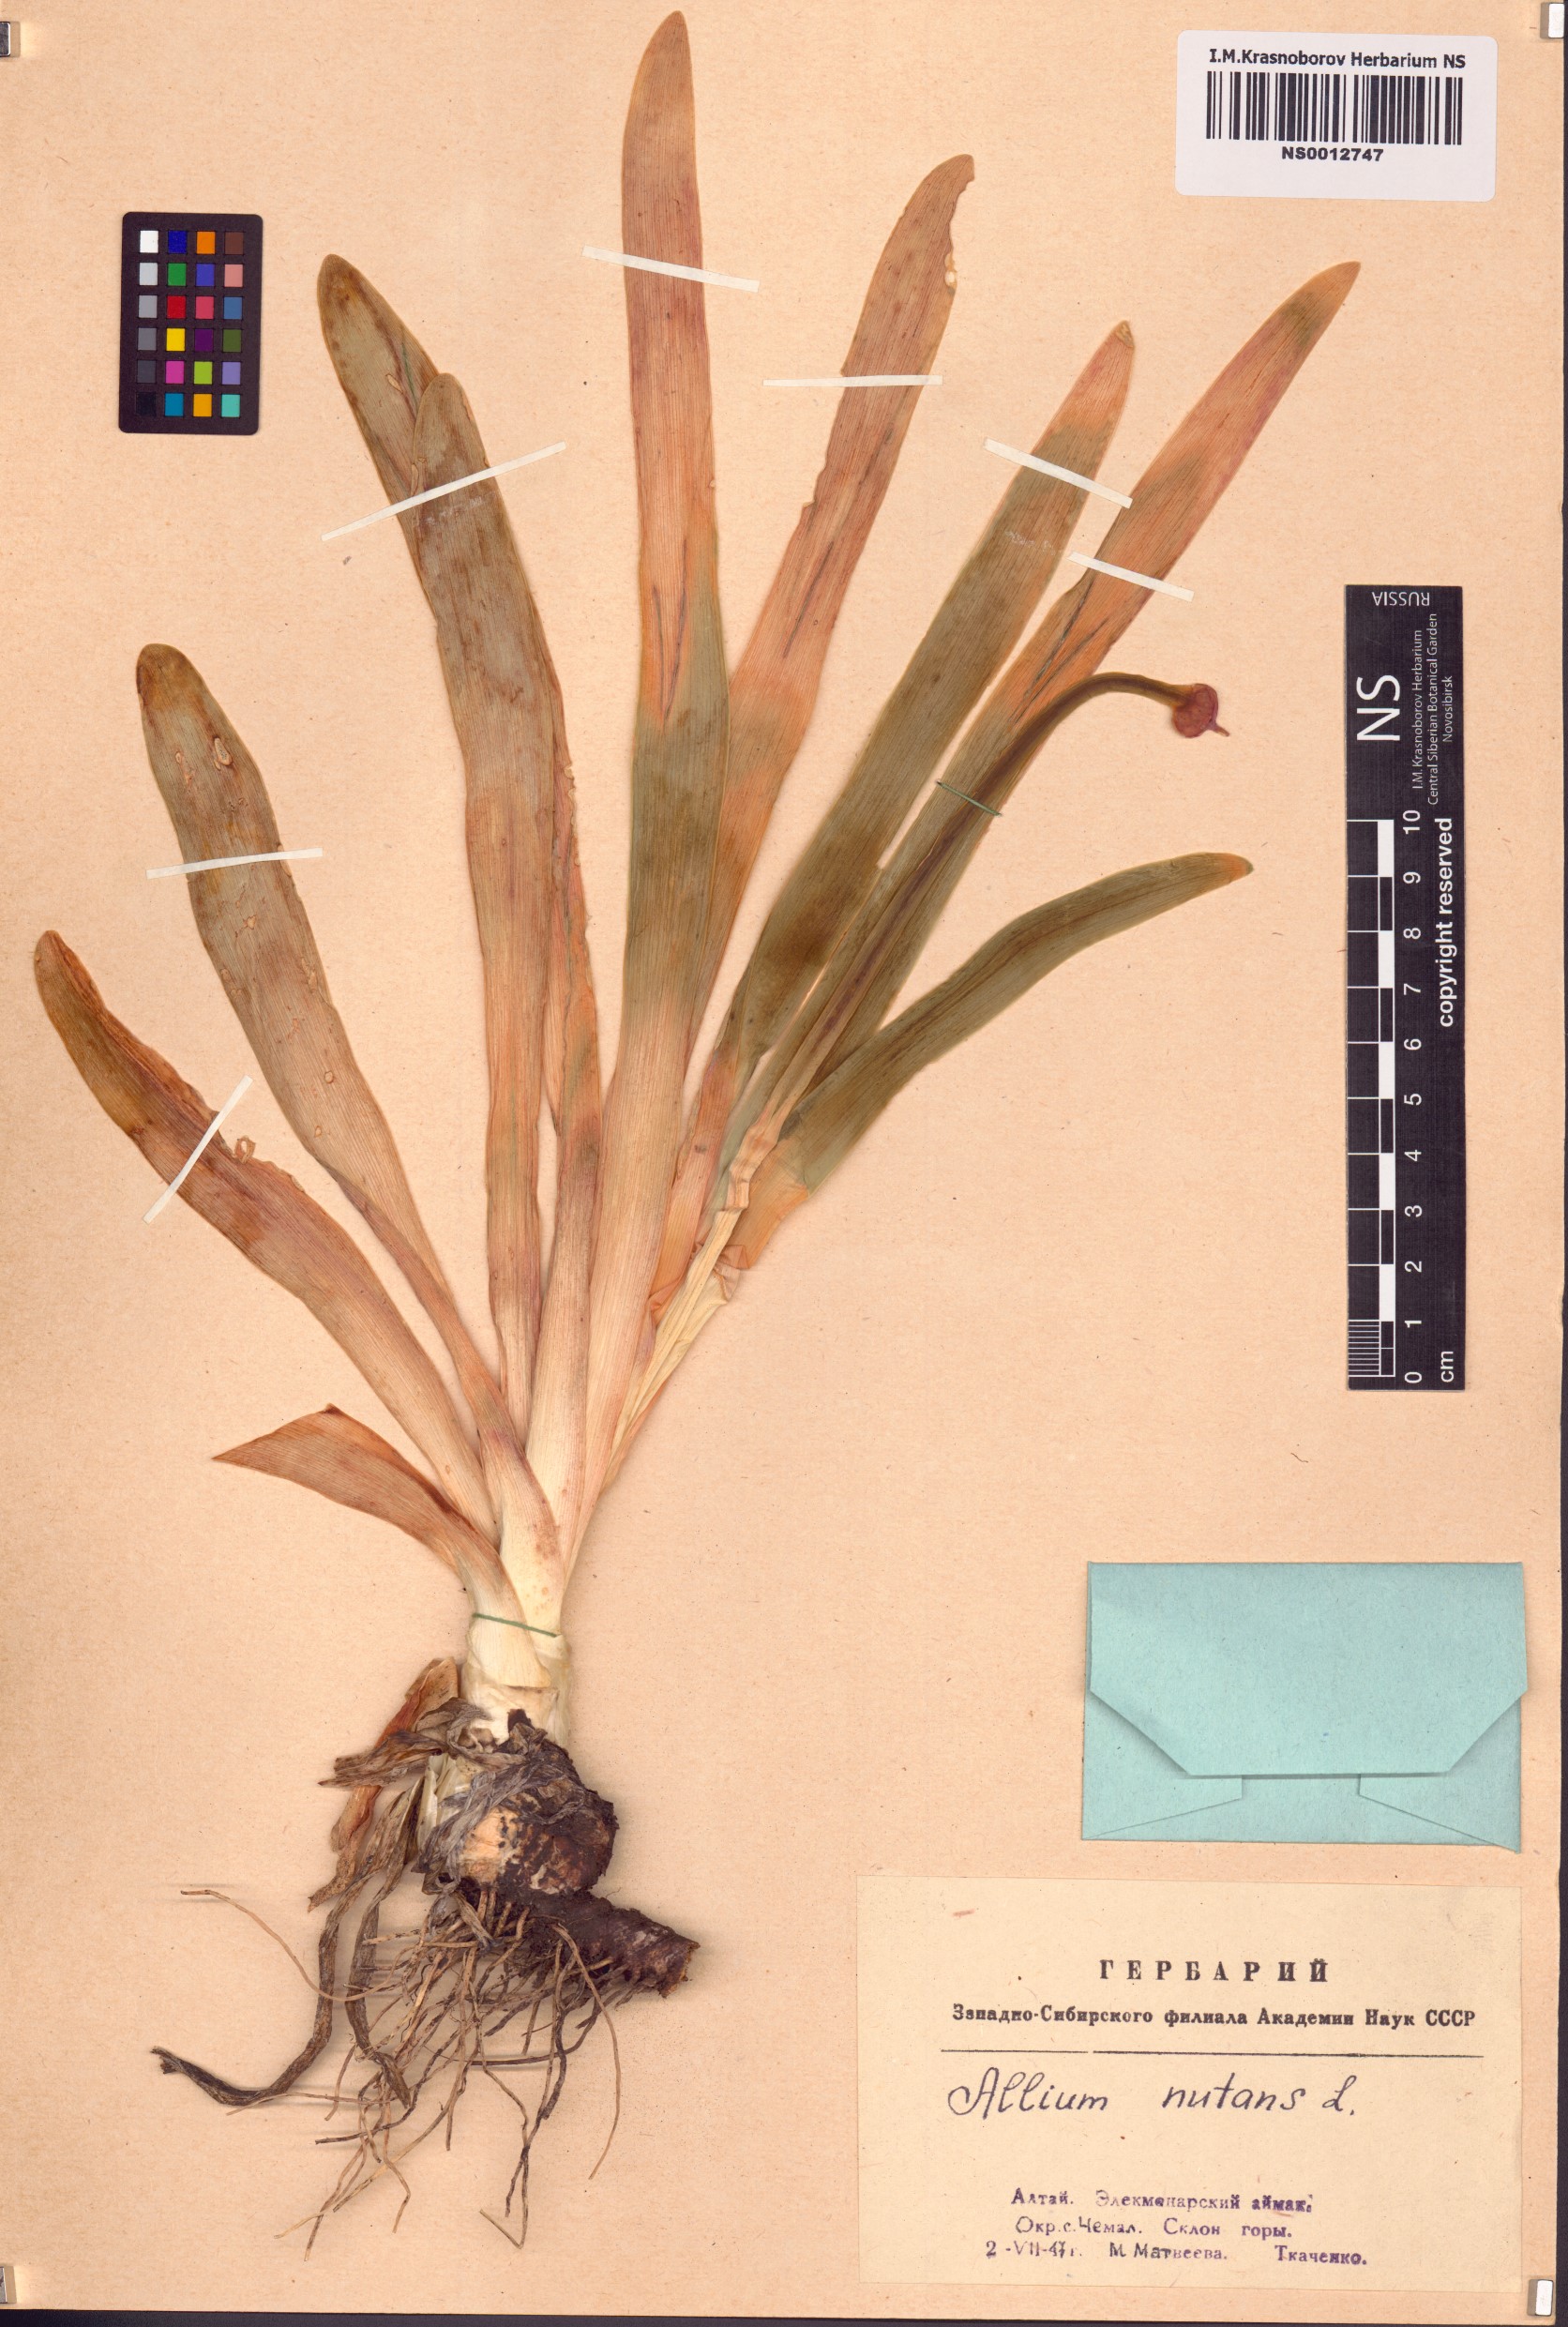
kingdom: Plantae
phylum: Tracheophyta
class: Liliopsida
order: Asparagales
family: Amaryllidaceae
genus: Allium
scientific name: Allium nutans
